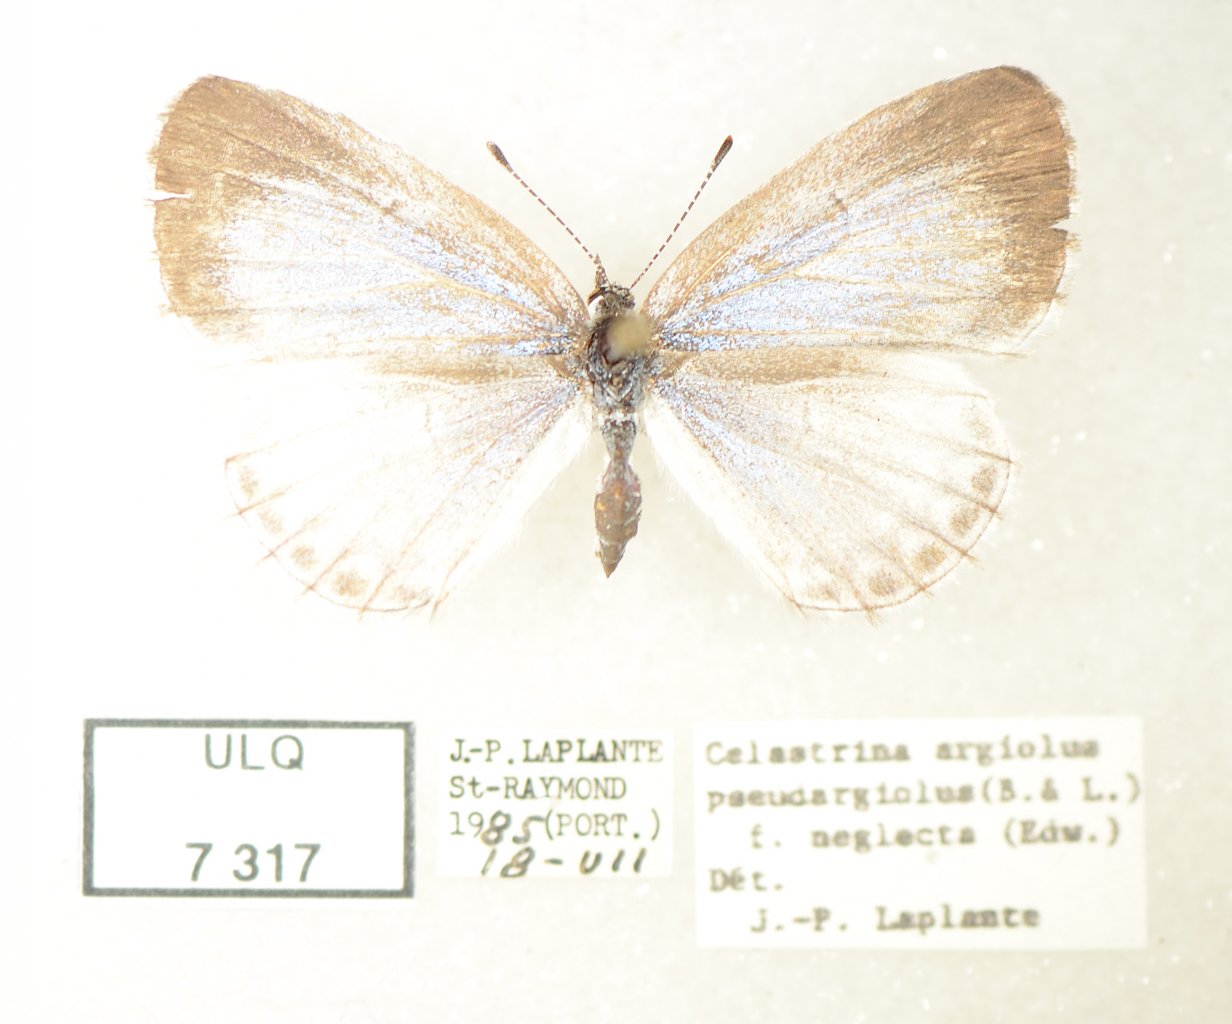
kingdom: Animalia
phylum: Arthropoda
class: Insecta
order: Lepidoptera
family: Lycaenidae
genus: Celastrina
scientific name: Celastrina lucia
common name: Northern Spring Azure
